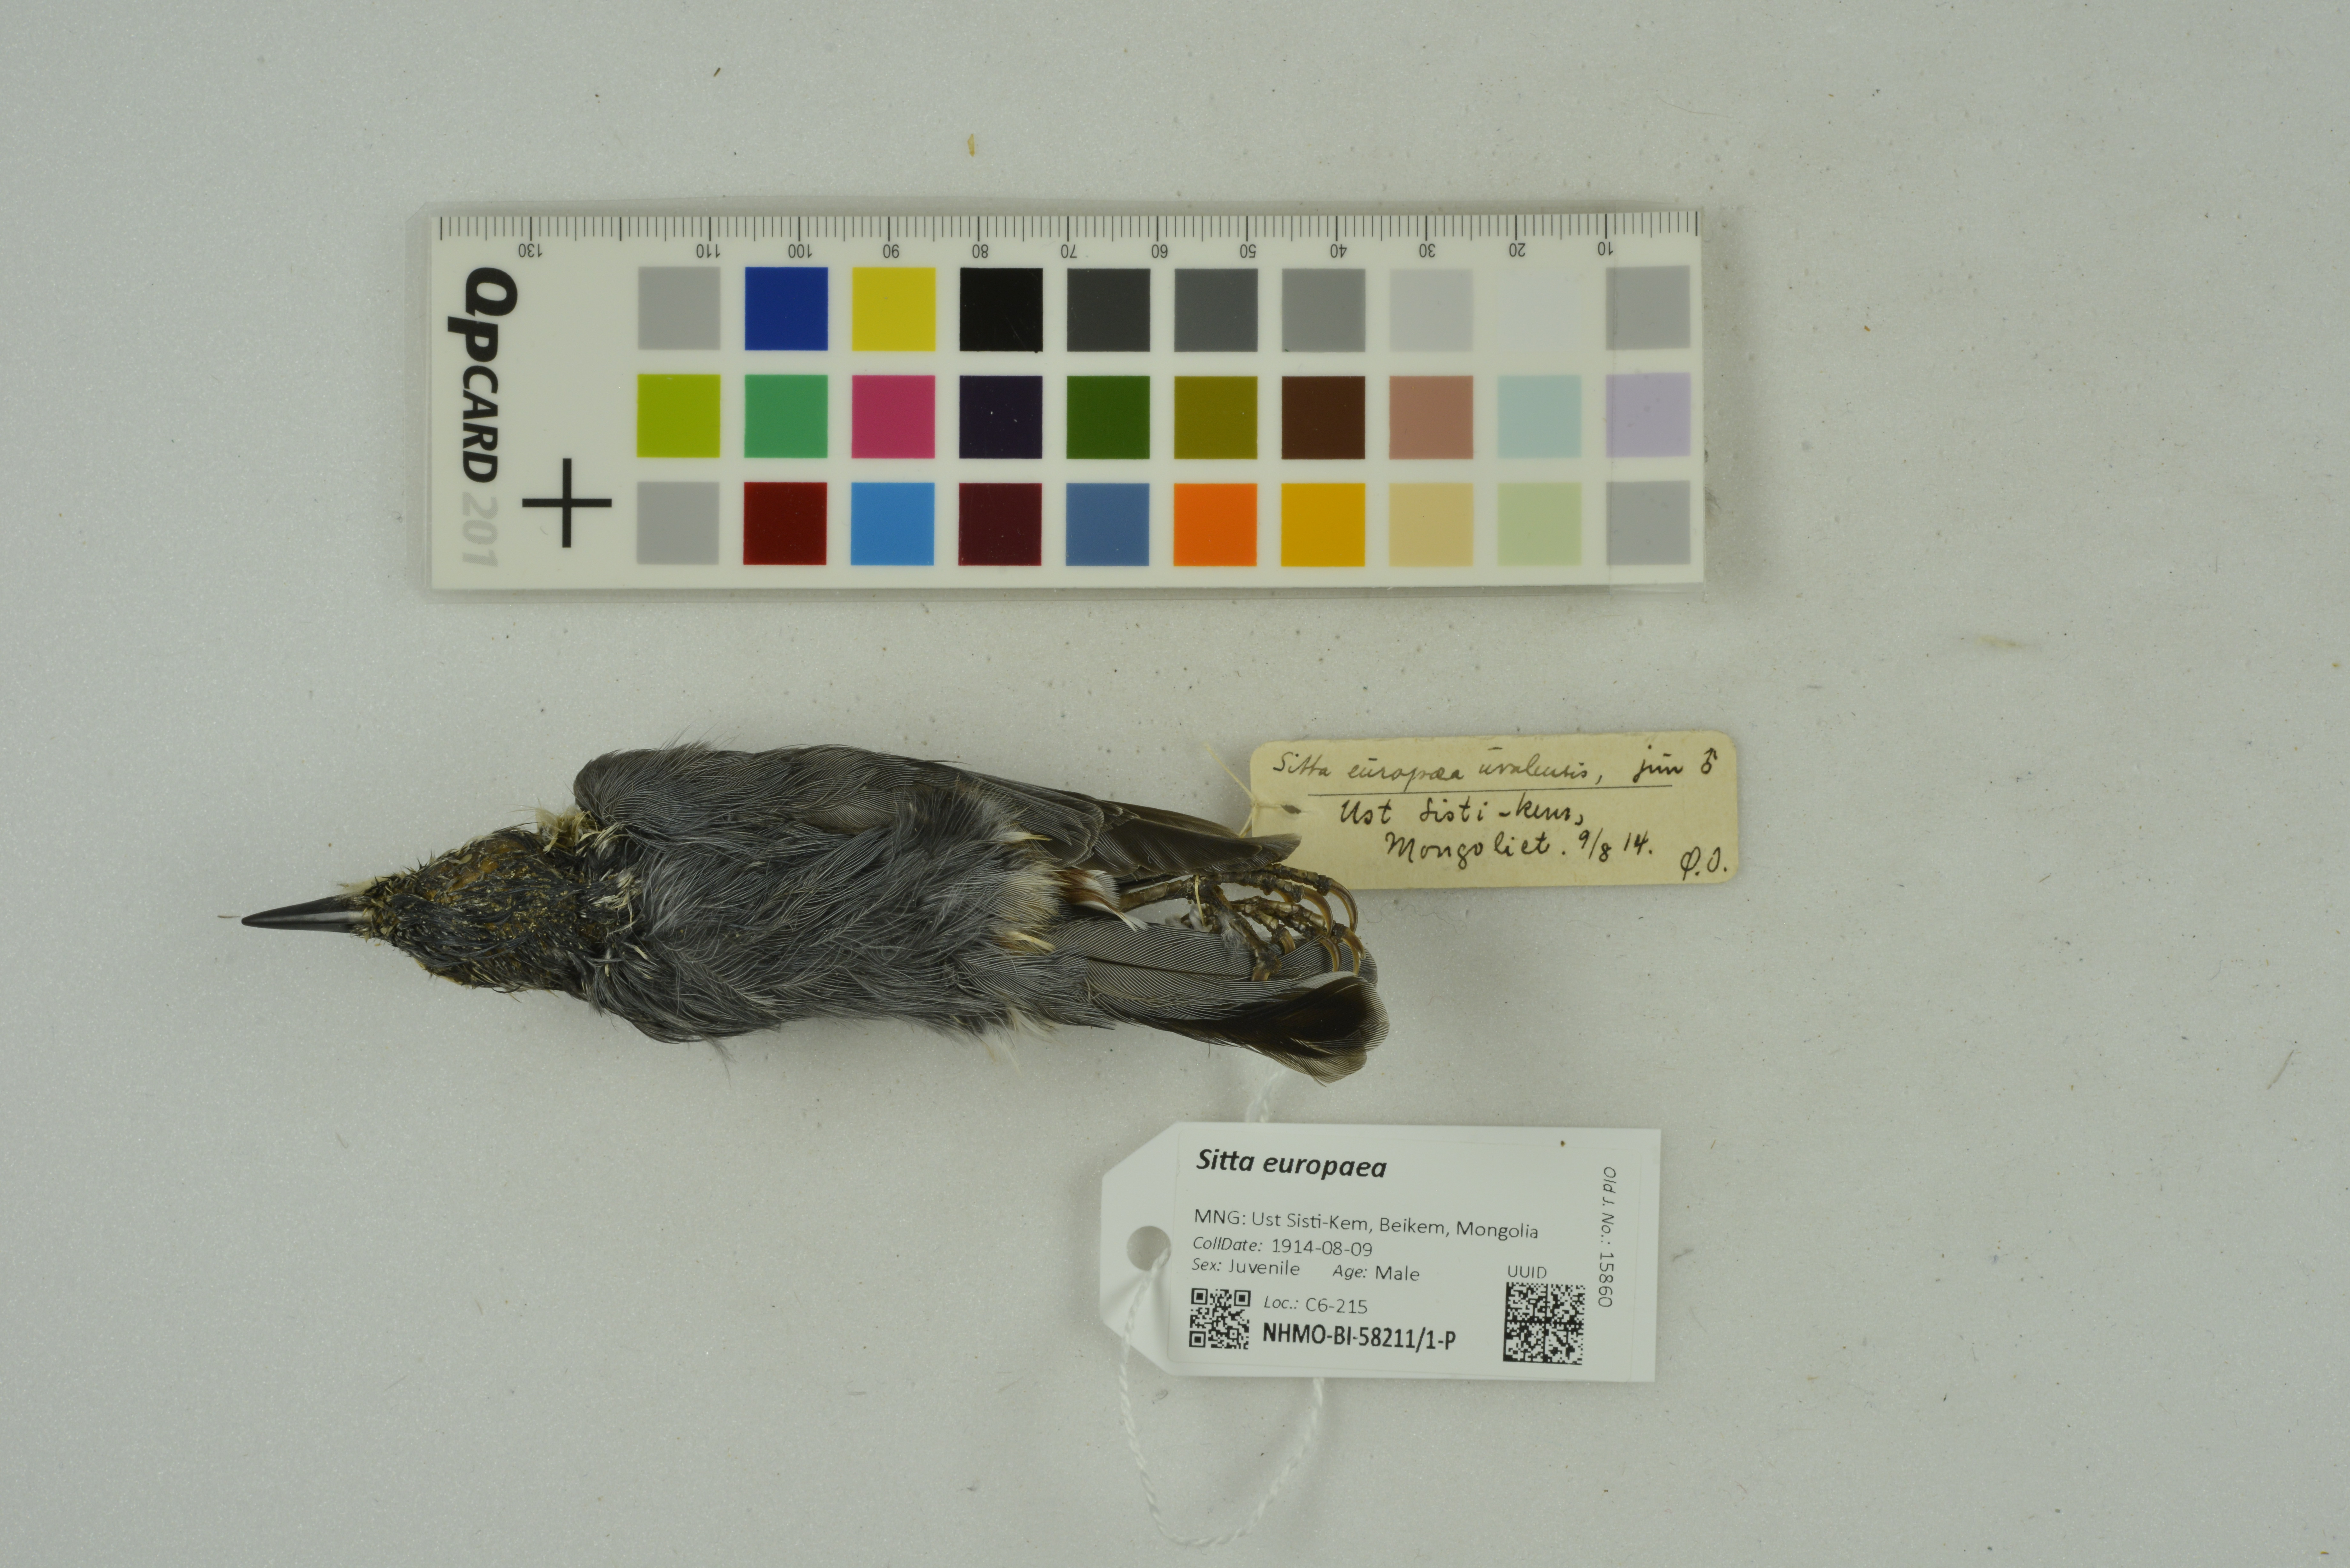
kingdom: Animalia
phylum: Chordata
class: Aves
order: Passeriformes
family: Sittidae
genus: Sitta
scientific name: Sitta europaea
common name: Eurasian nuthatch
